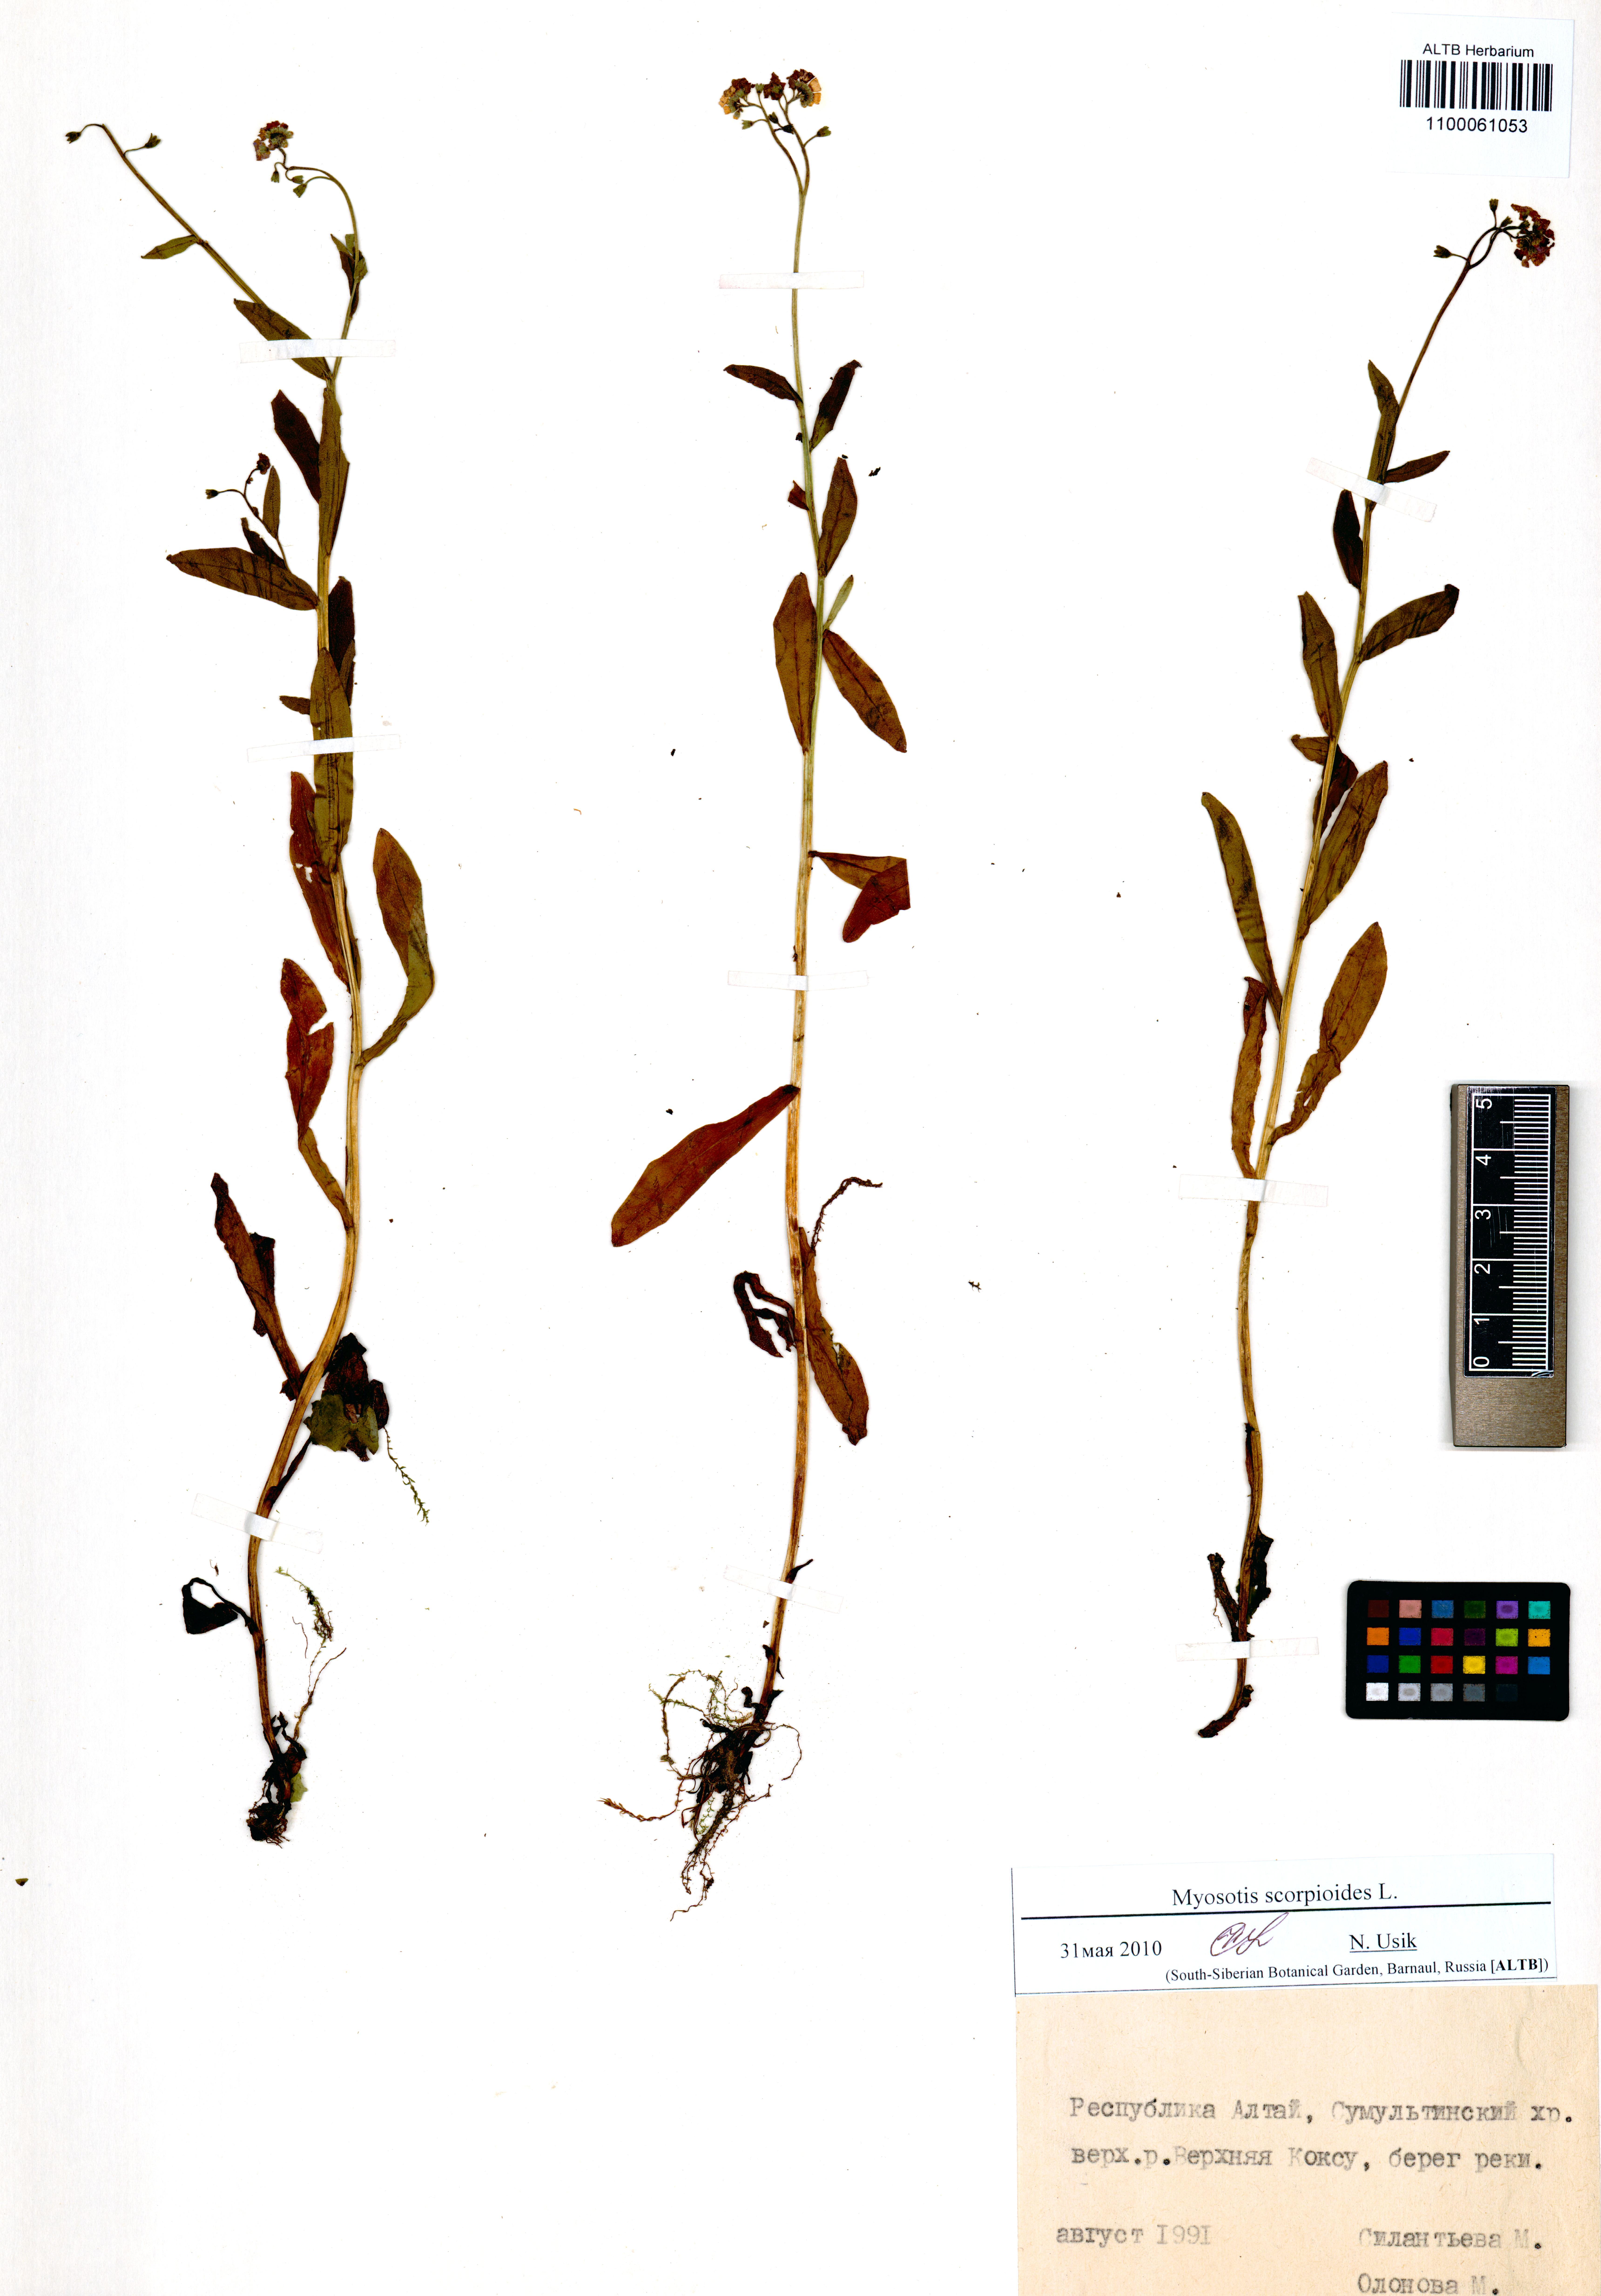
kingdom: Plantae
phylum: Tracheophyta
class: Magnoliopsida
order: Boraginales
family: Boraginaceae
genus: Myosotis
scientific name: Myosotis scorpioides
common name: Water forget-me-not
